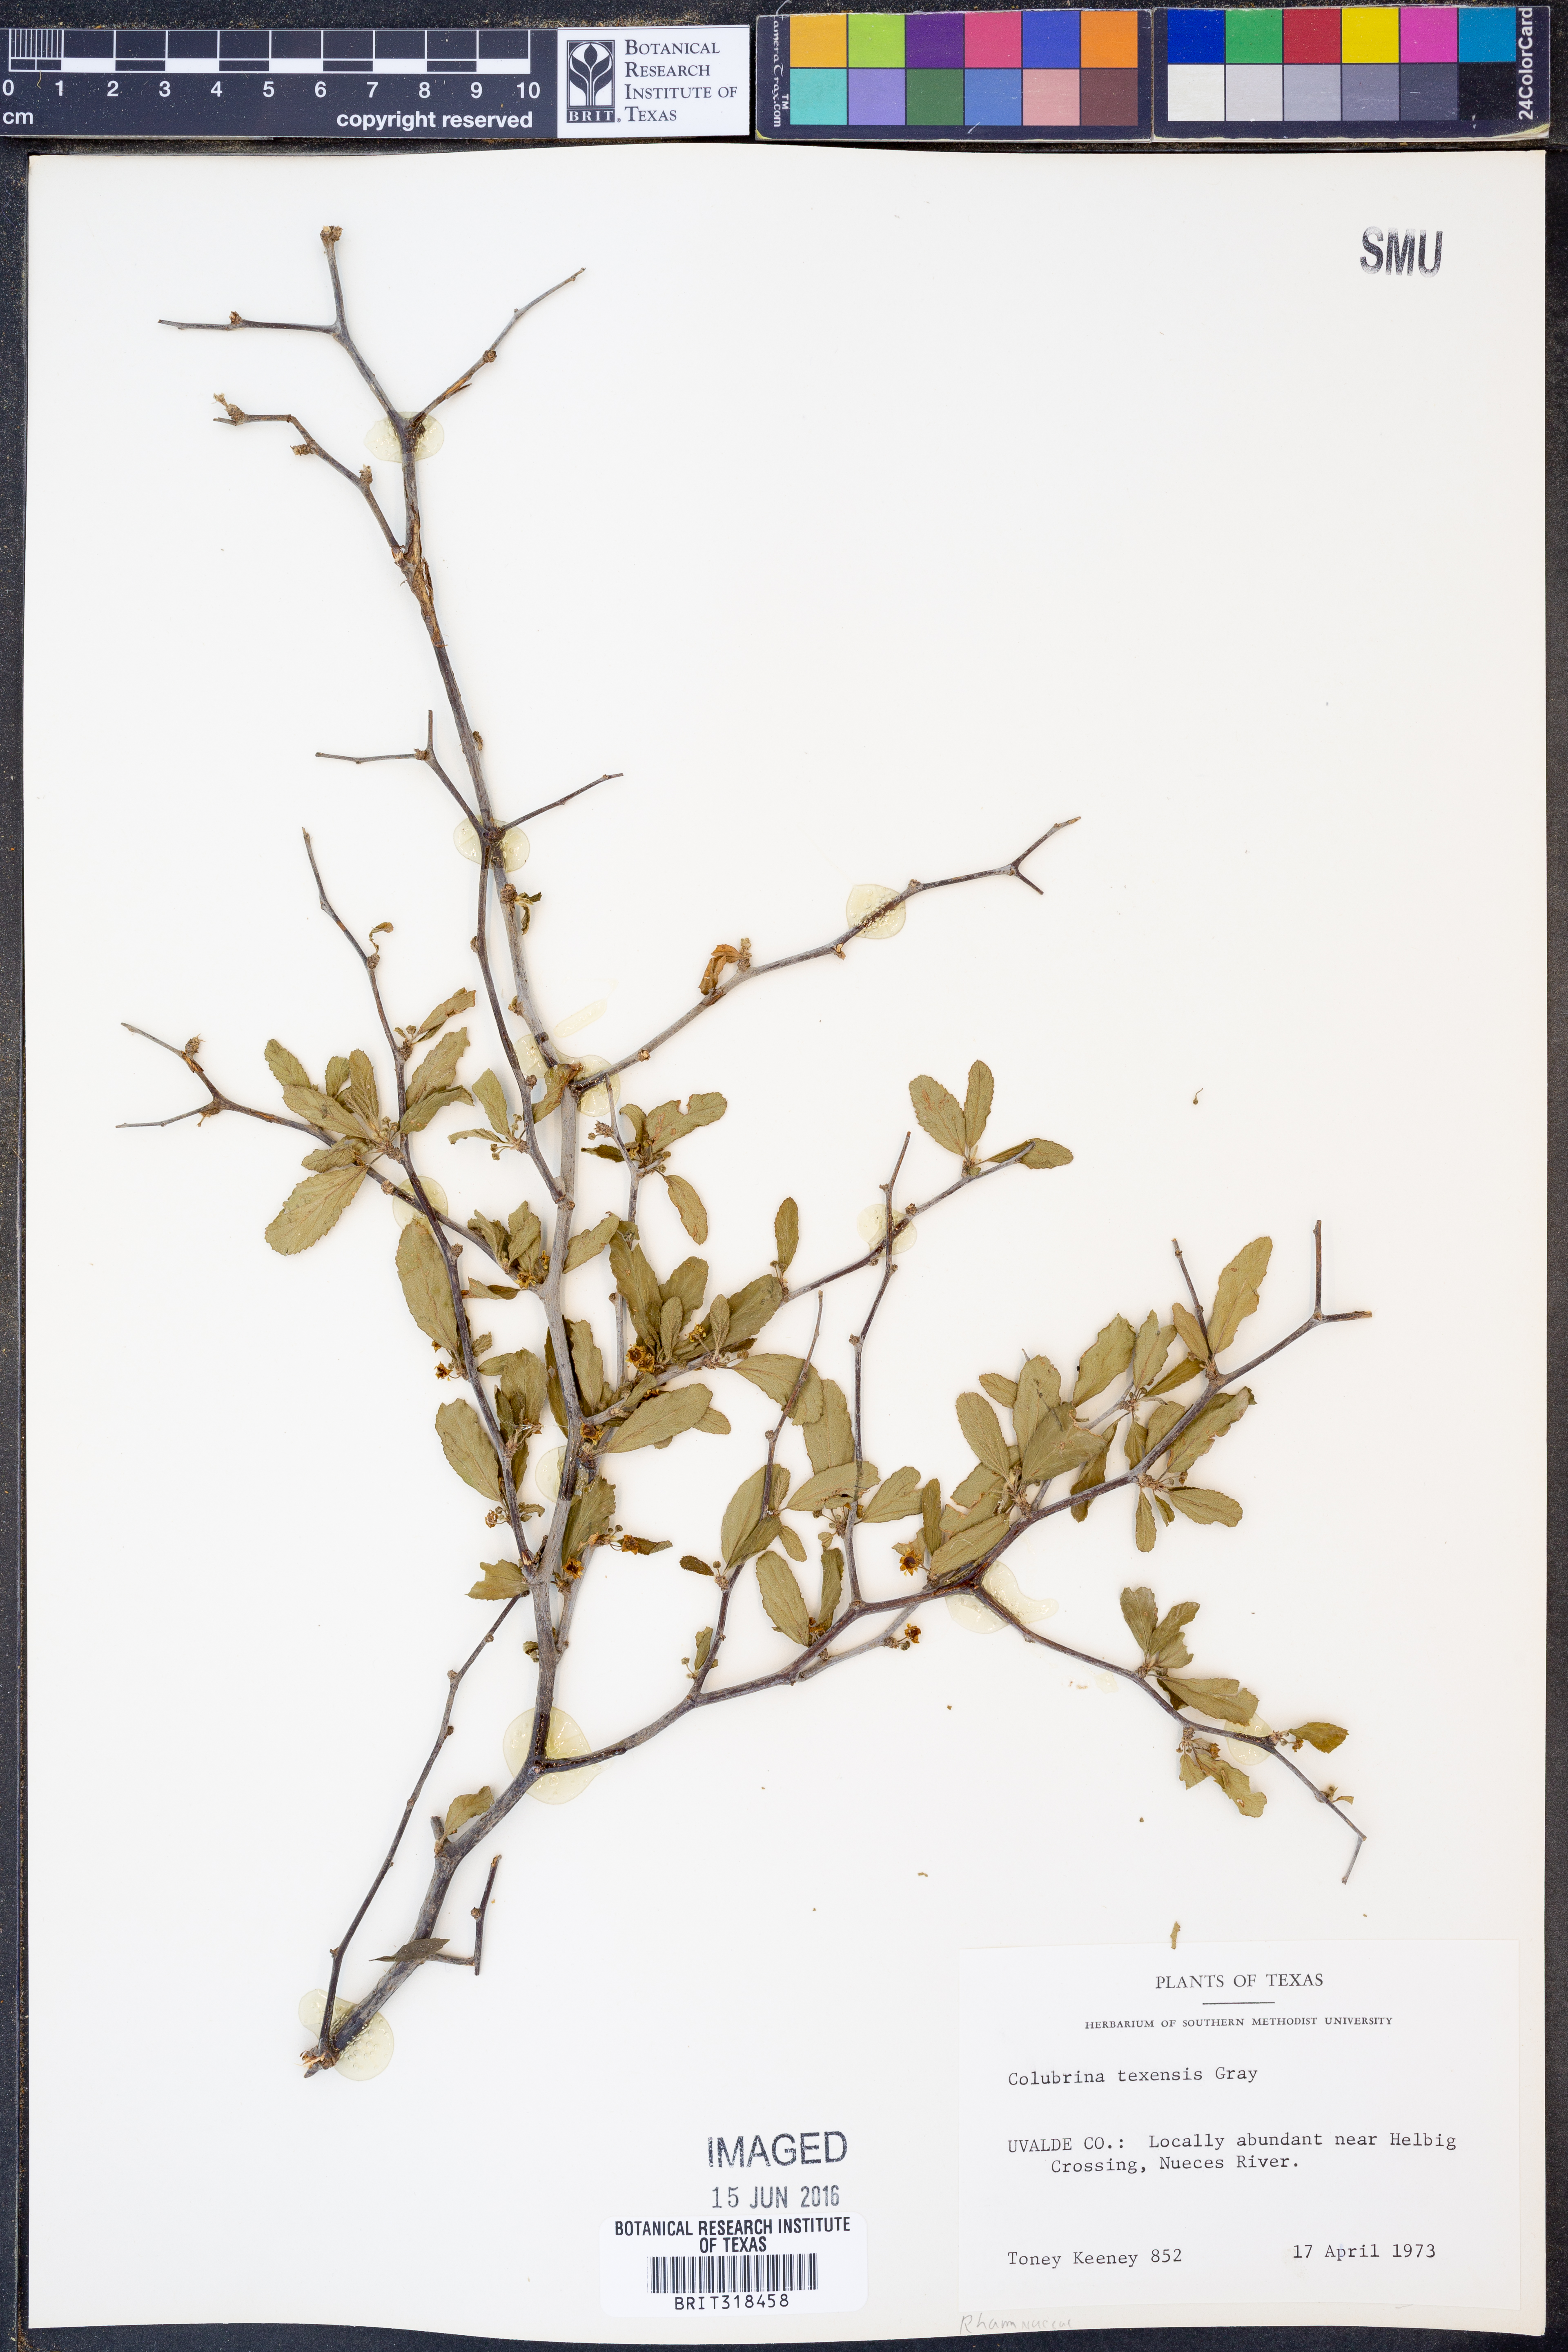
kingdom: Plantae
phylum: Tracheophyta
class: Magnoliopsida
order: Rosales
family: Rhamnaceae
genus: Colubrina
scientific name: Colubrina texensis
